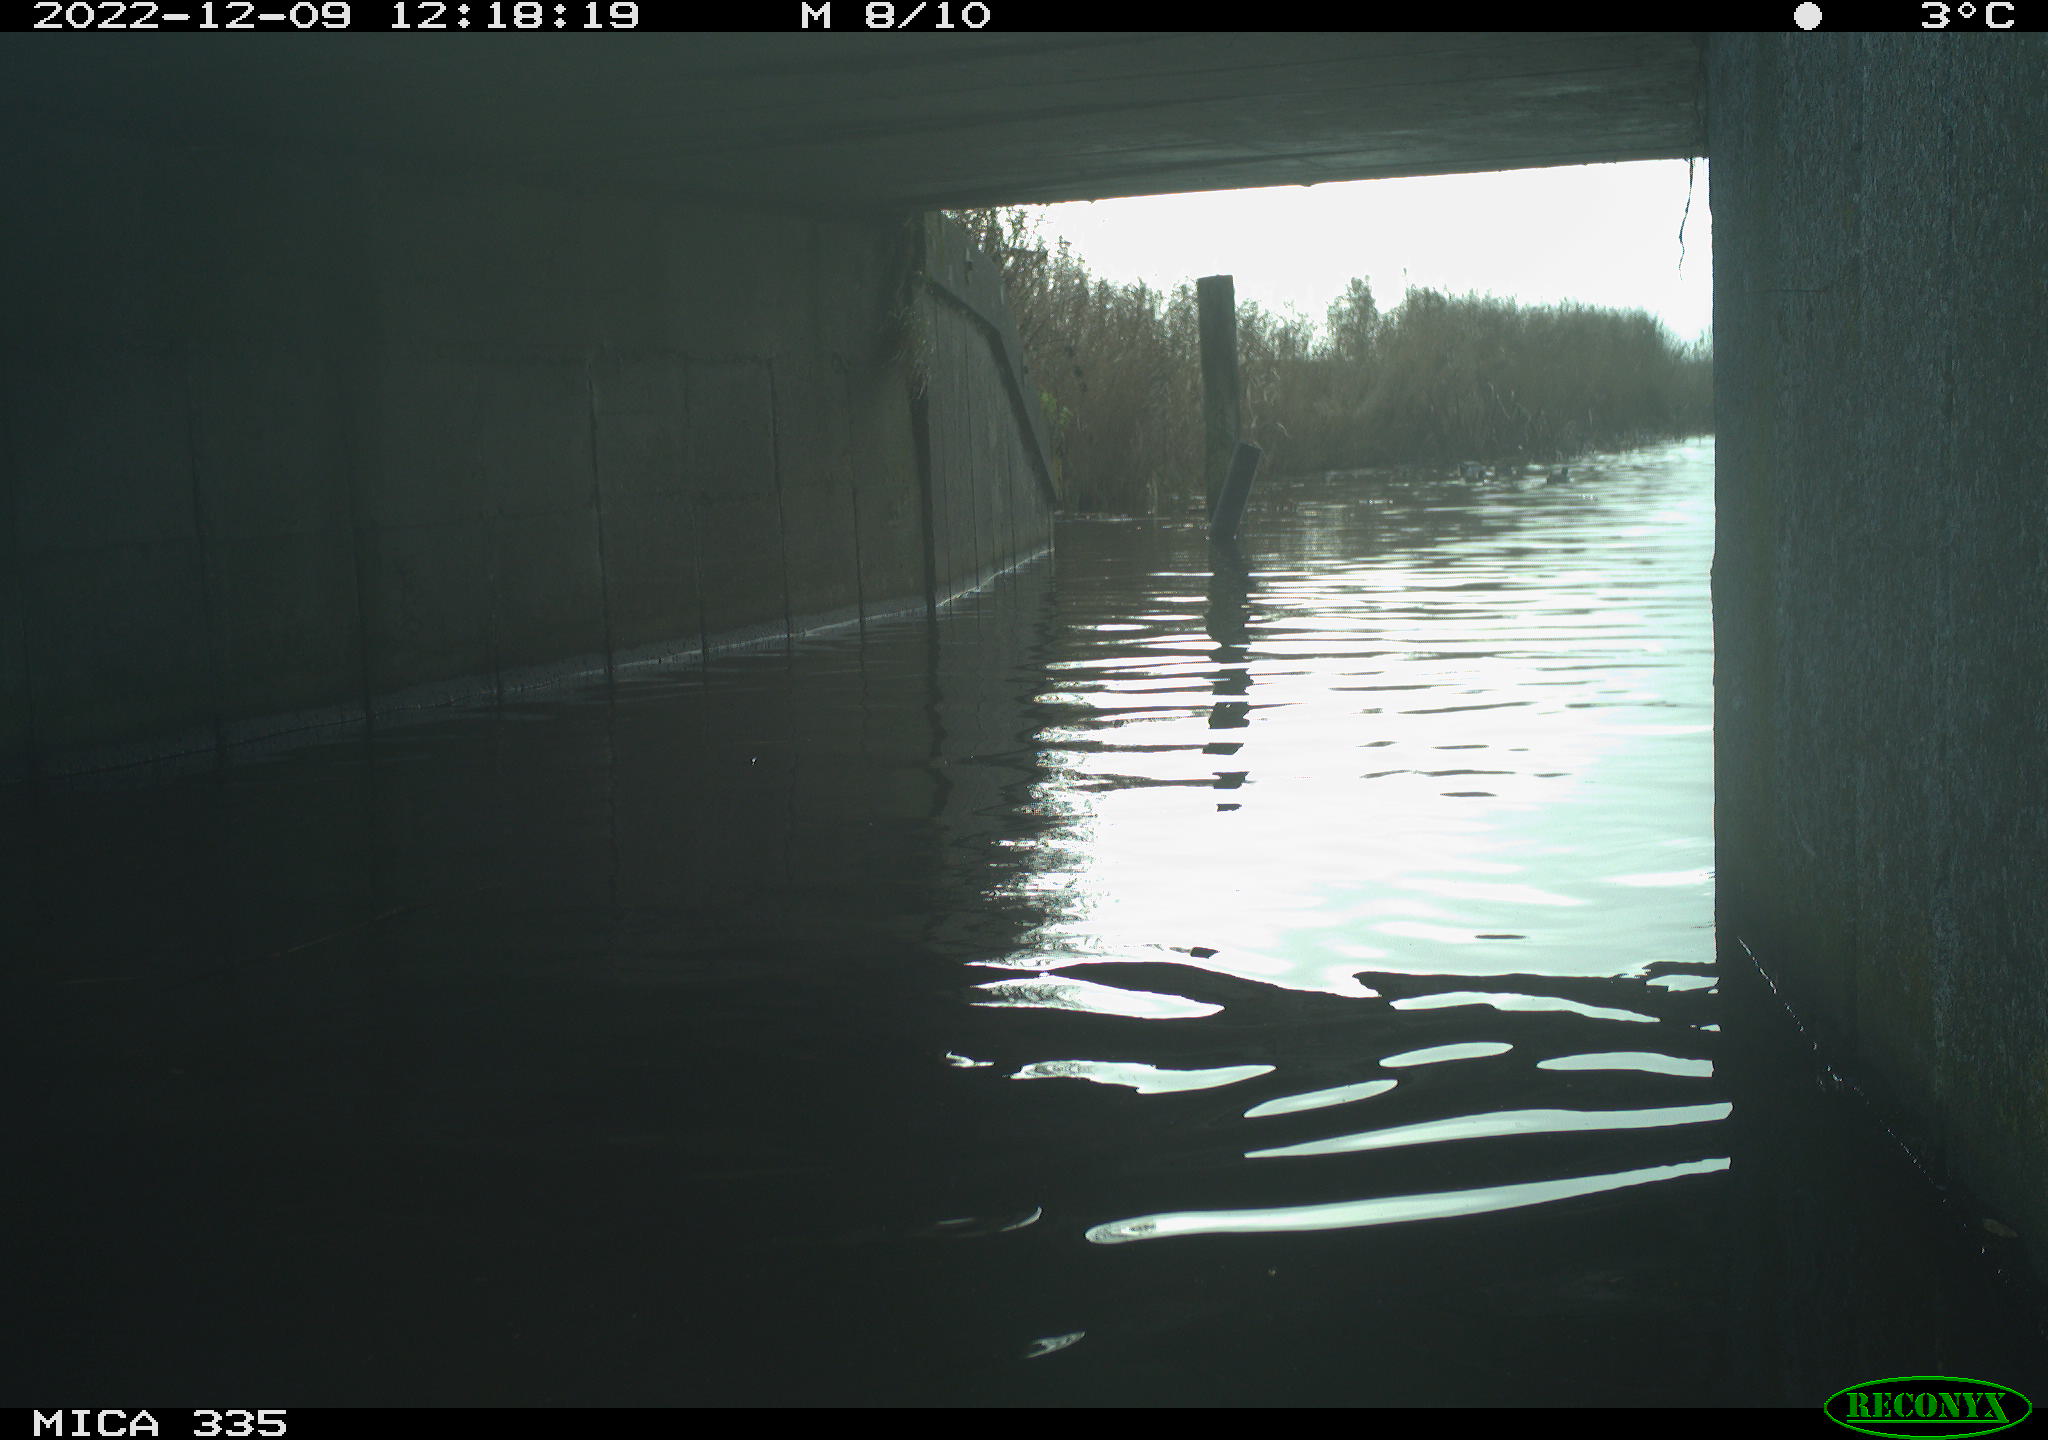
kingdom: Animalia
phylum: Chordata
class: Aves
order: Anseriformes
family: Anatidae
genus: Anas
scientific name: Anas
